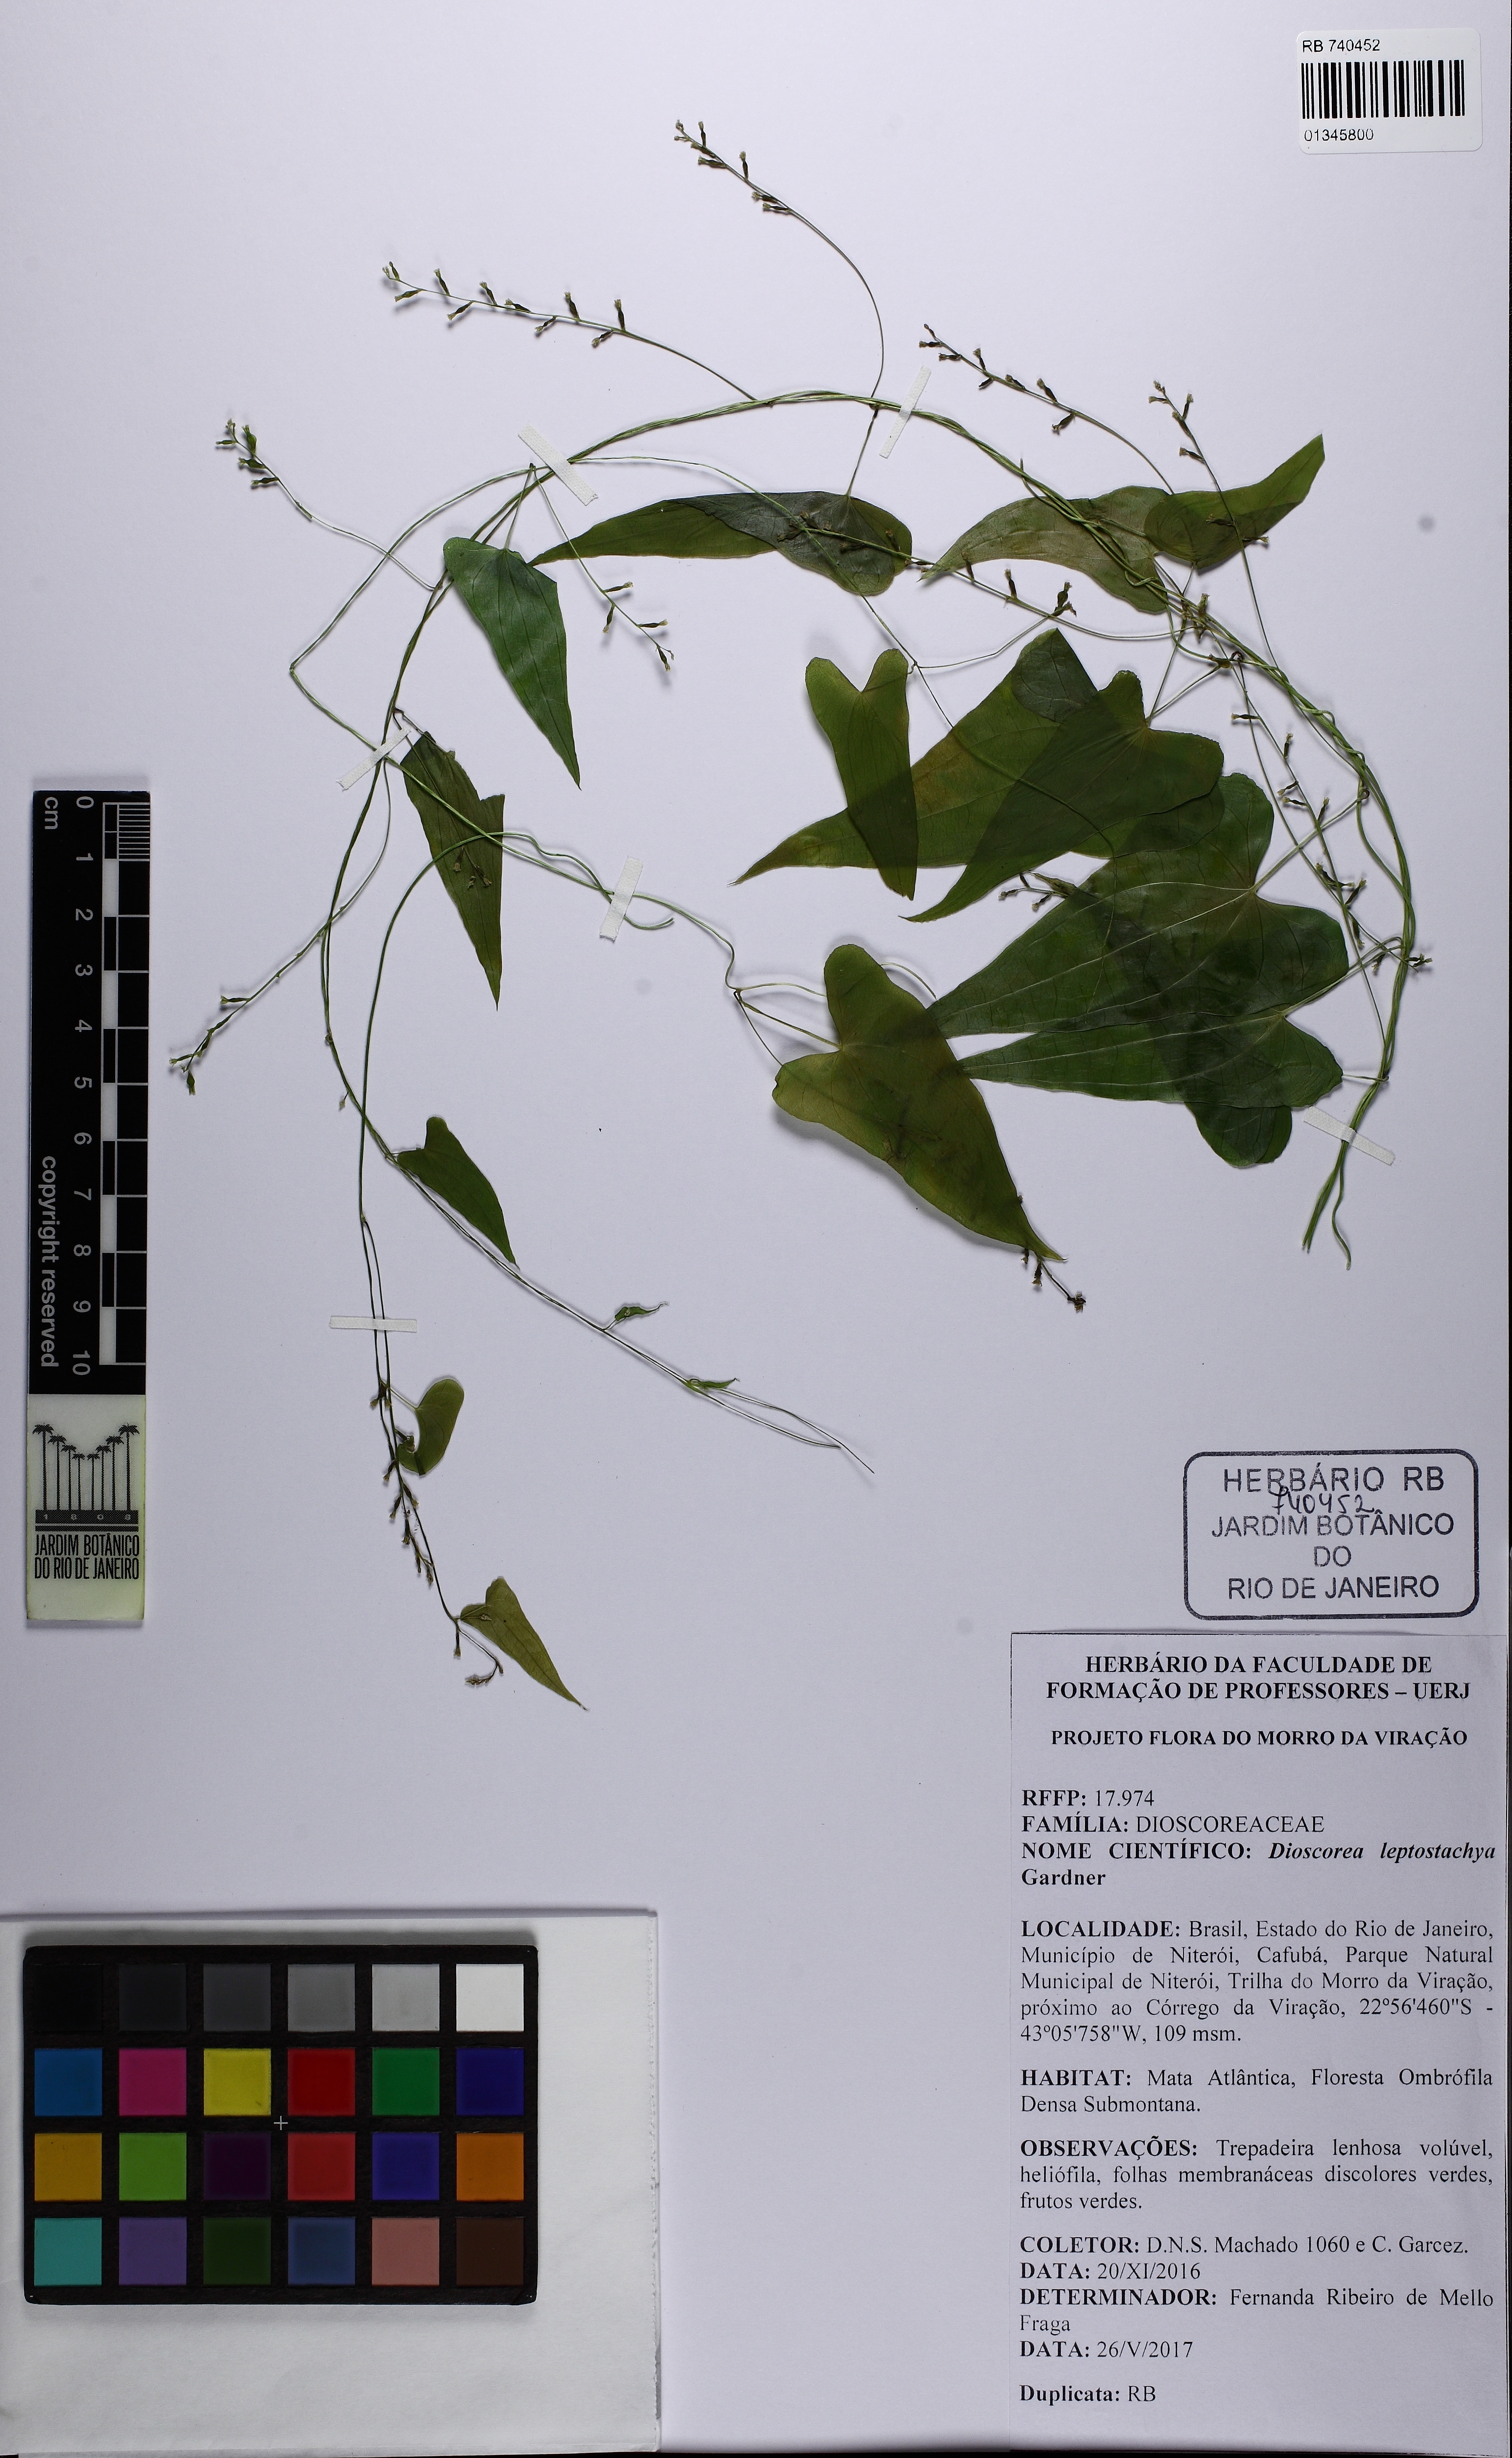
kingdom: Plantae
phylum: Tracheophyta
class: Liliopsida
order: Dioscoreales
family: Dioscoreaceae
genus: Dioscorea
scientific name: Dioscorea martiana
